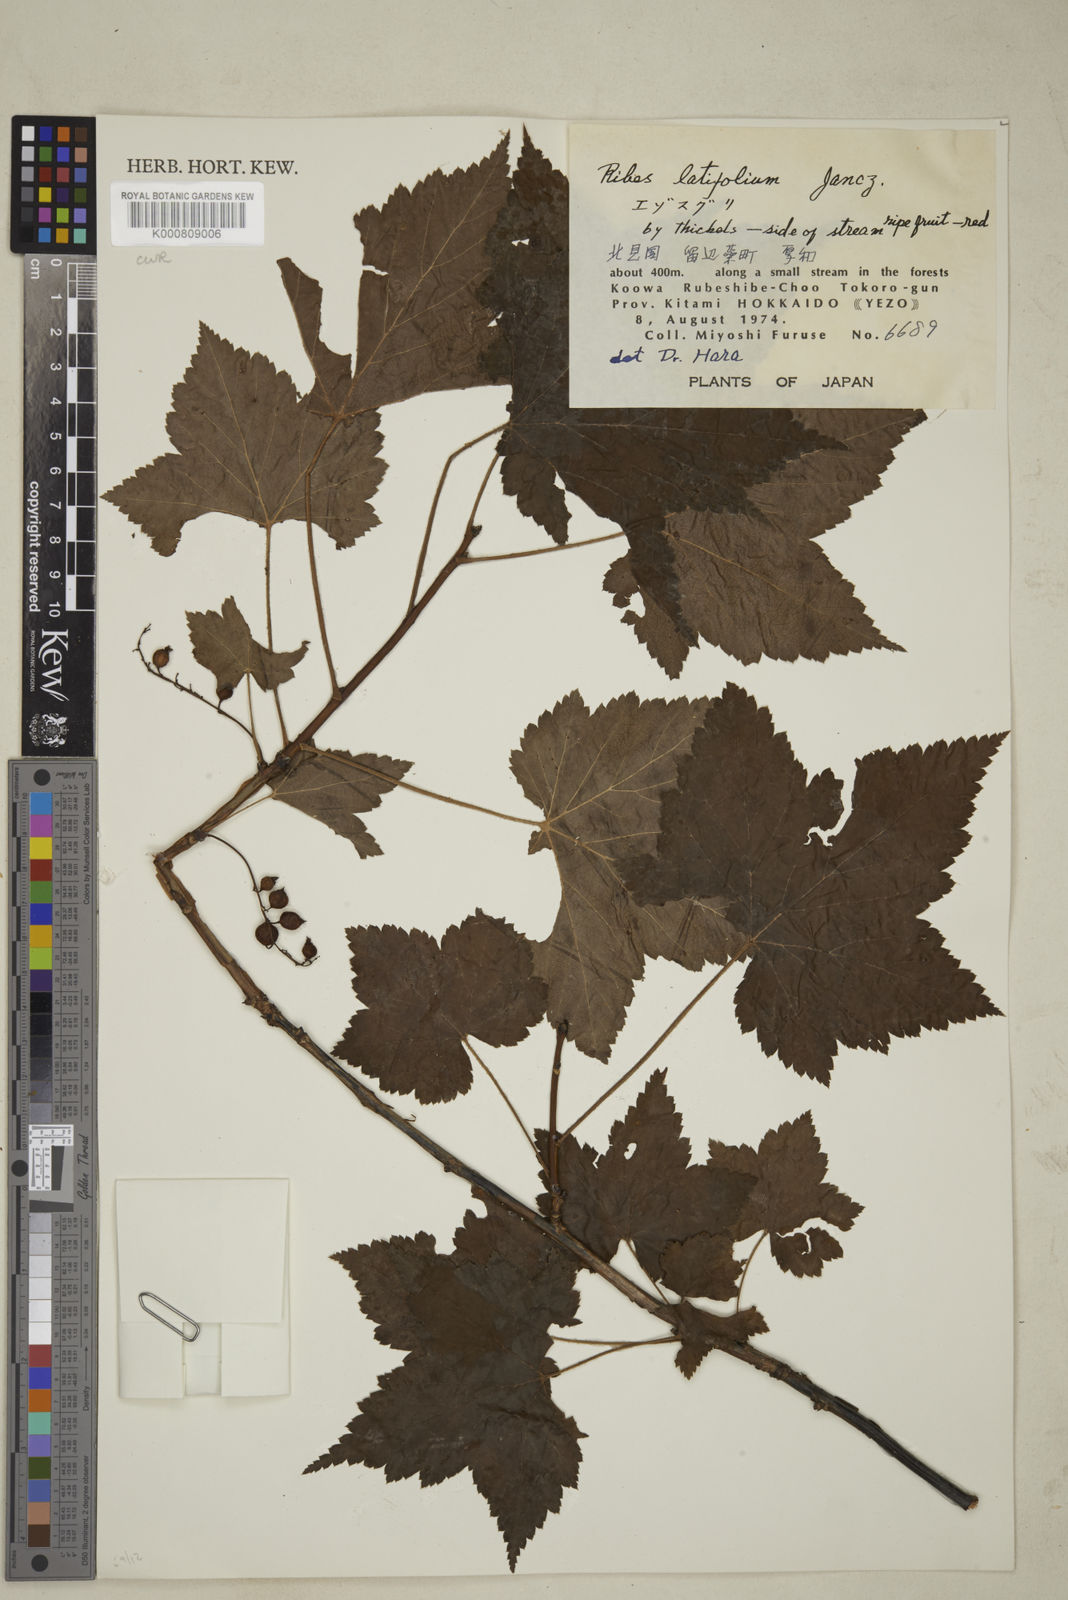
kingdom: Plantae
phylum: Tracheophyta
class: Magnoliopsida
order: Saxifragales
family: Grossulariaceae
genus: Ribes
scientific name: Ribes latifolium
